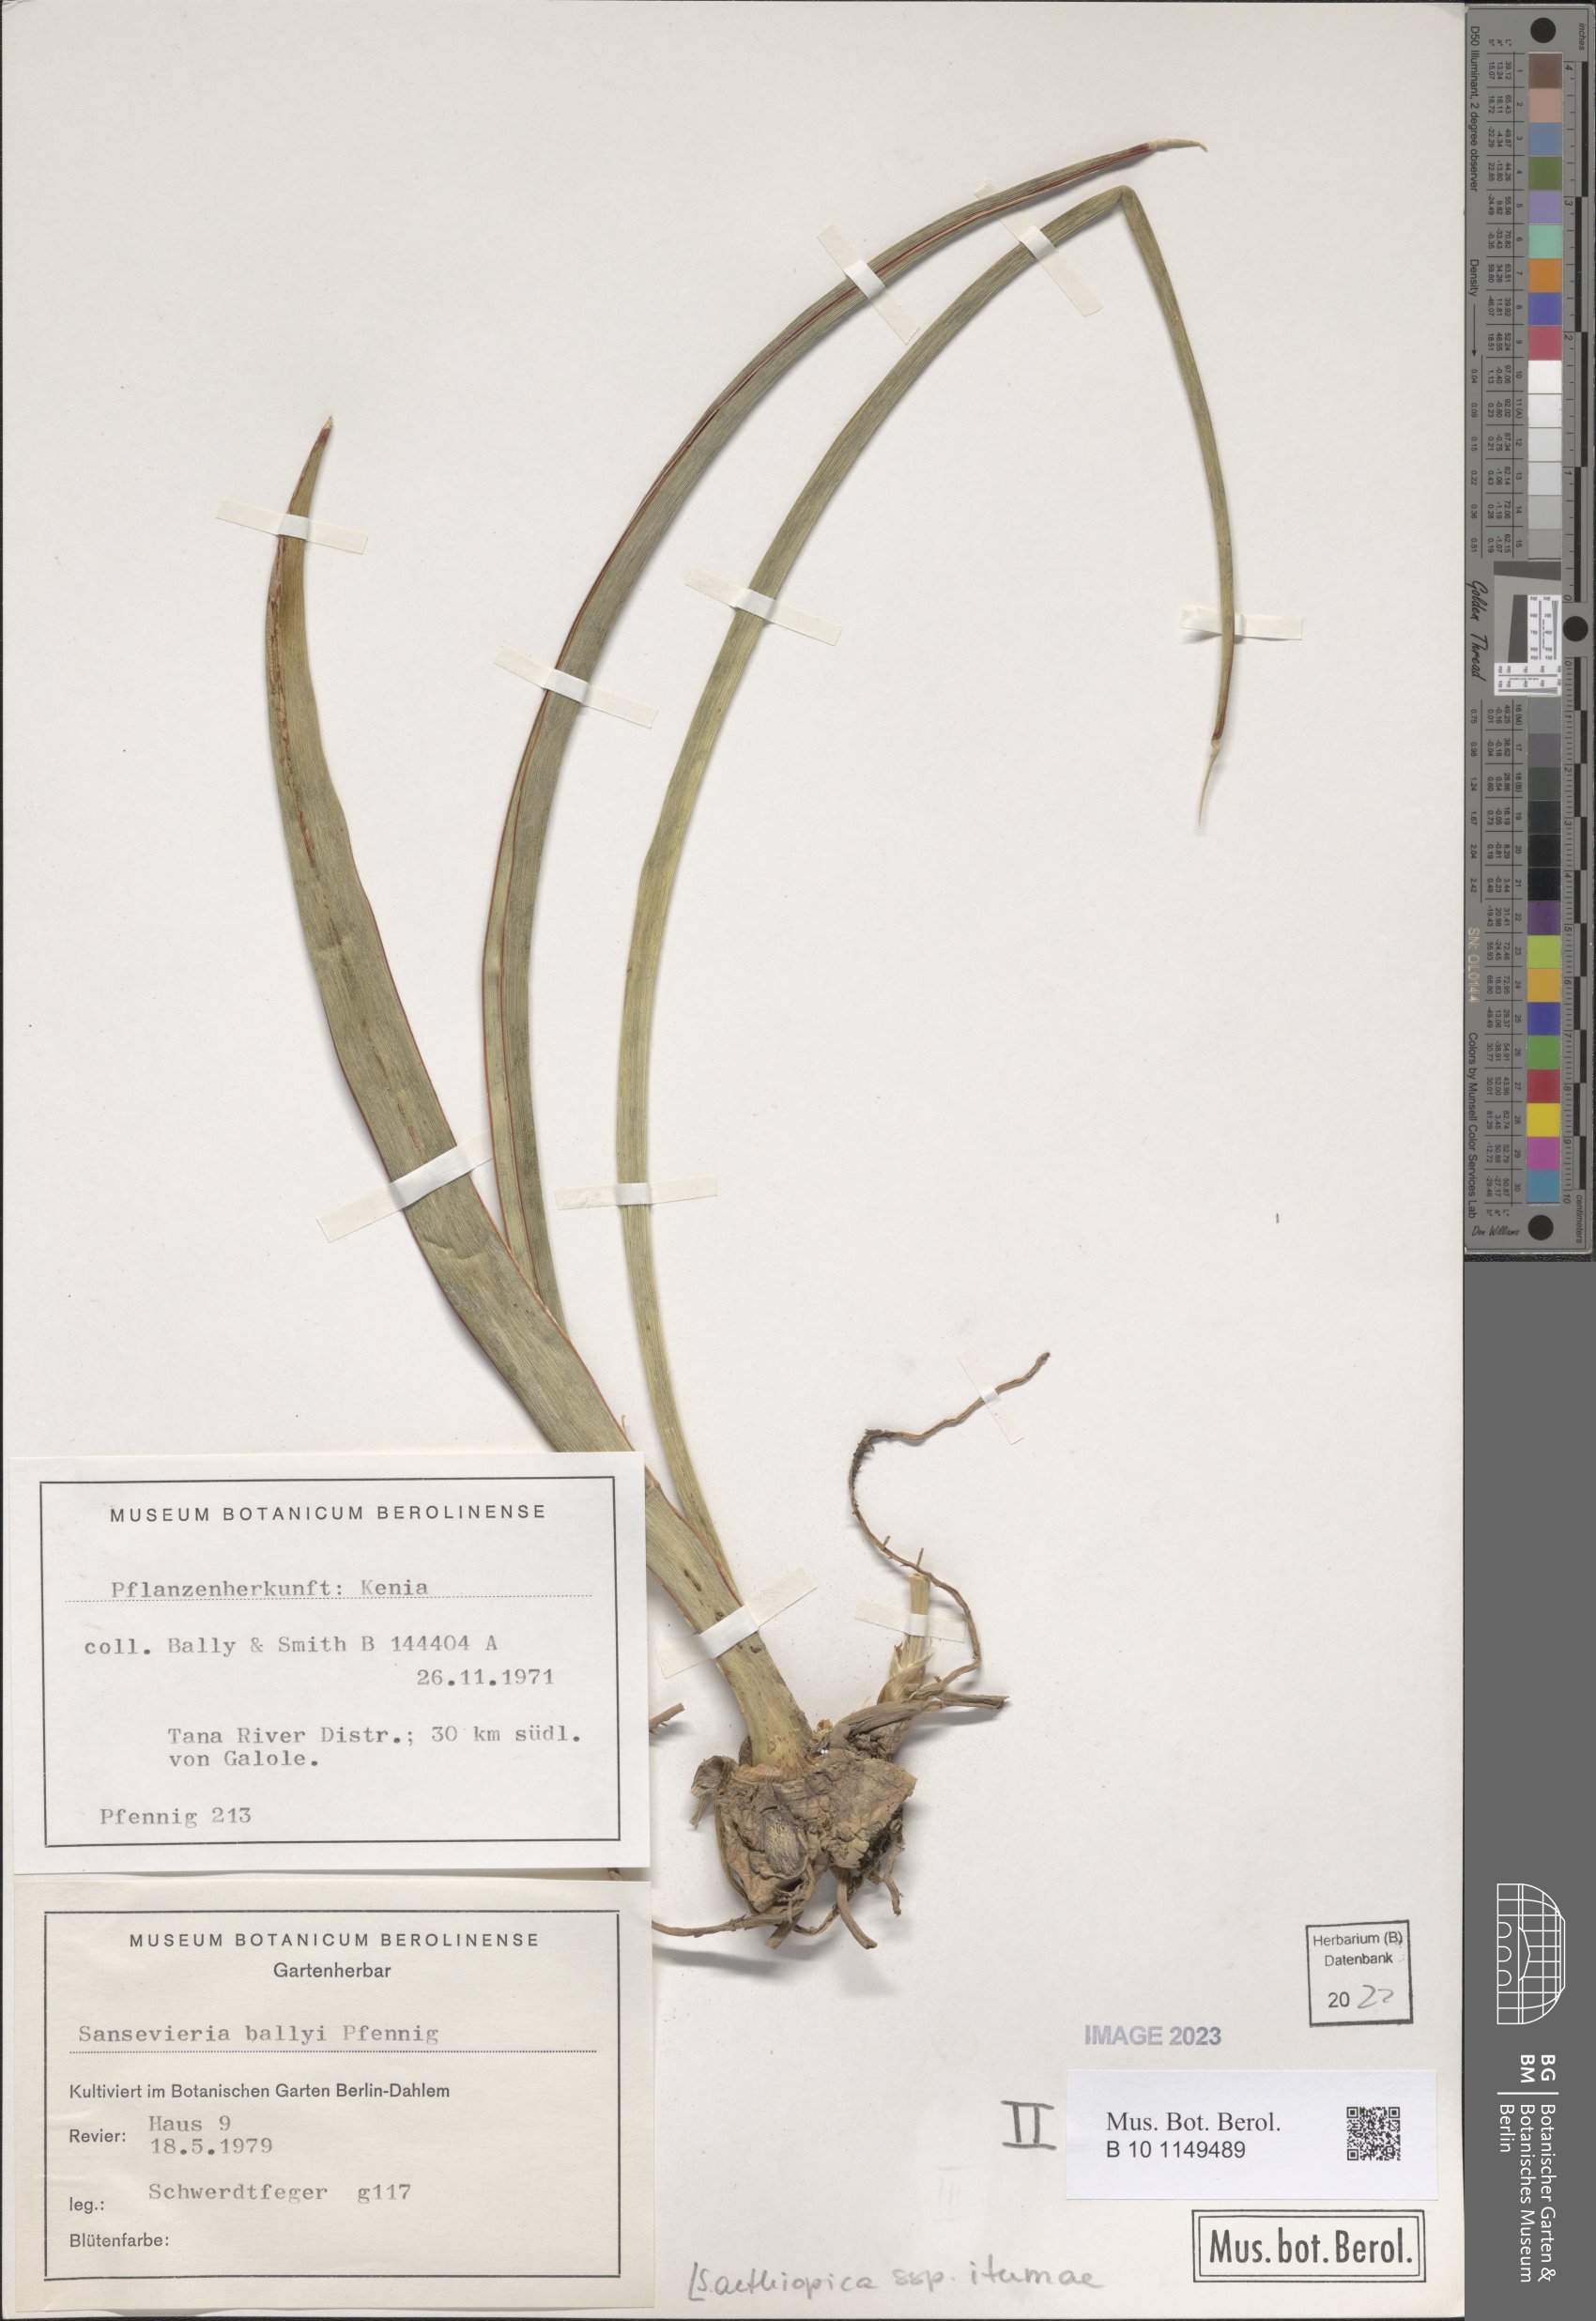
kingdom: Plantae
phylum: Tracheophyta
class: Liliopsida
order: Asparagales
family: Asparagaceae
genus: Sansevieria
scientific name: Sansevieria itumea
